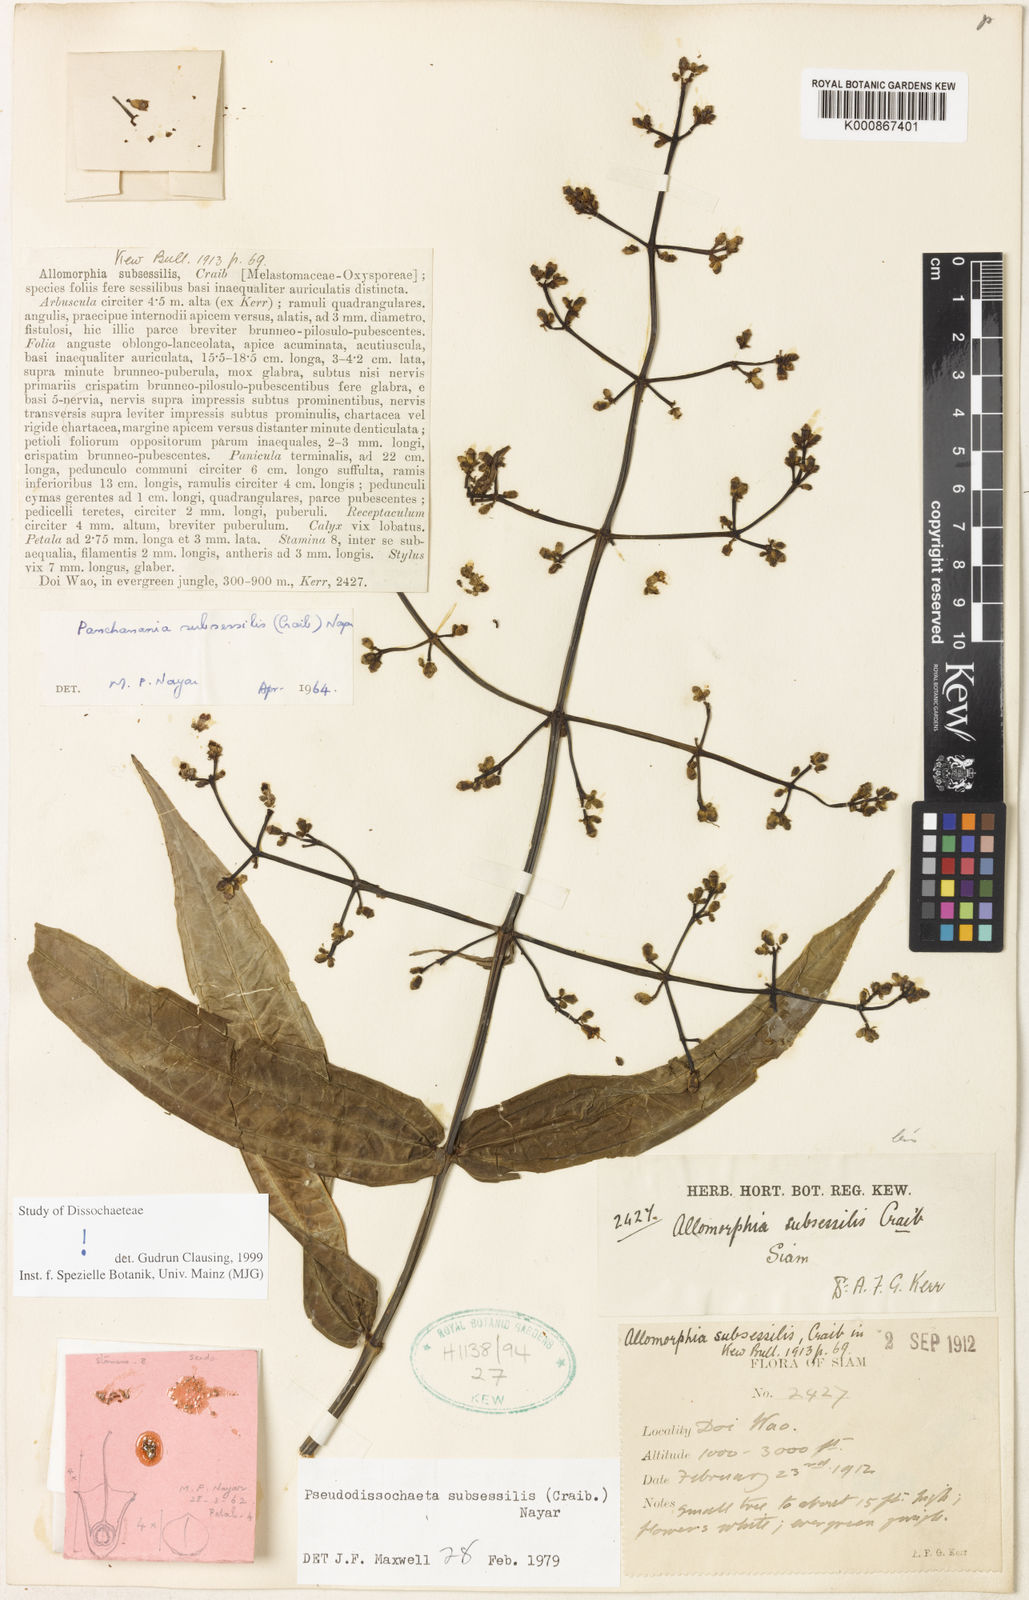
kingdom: Plantae
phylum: Tracheophyta
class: Magnoliopsida
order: Myrtales
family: Melastomataceae
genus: Pseudodissochaeta
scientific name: Pseudodissochaeta subsessilis
